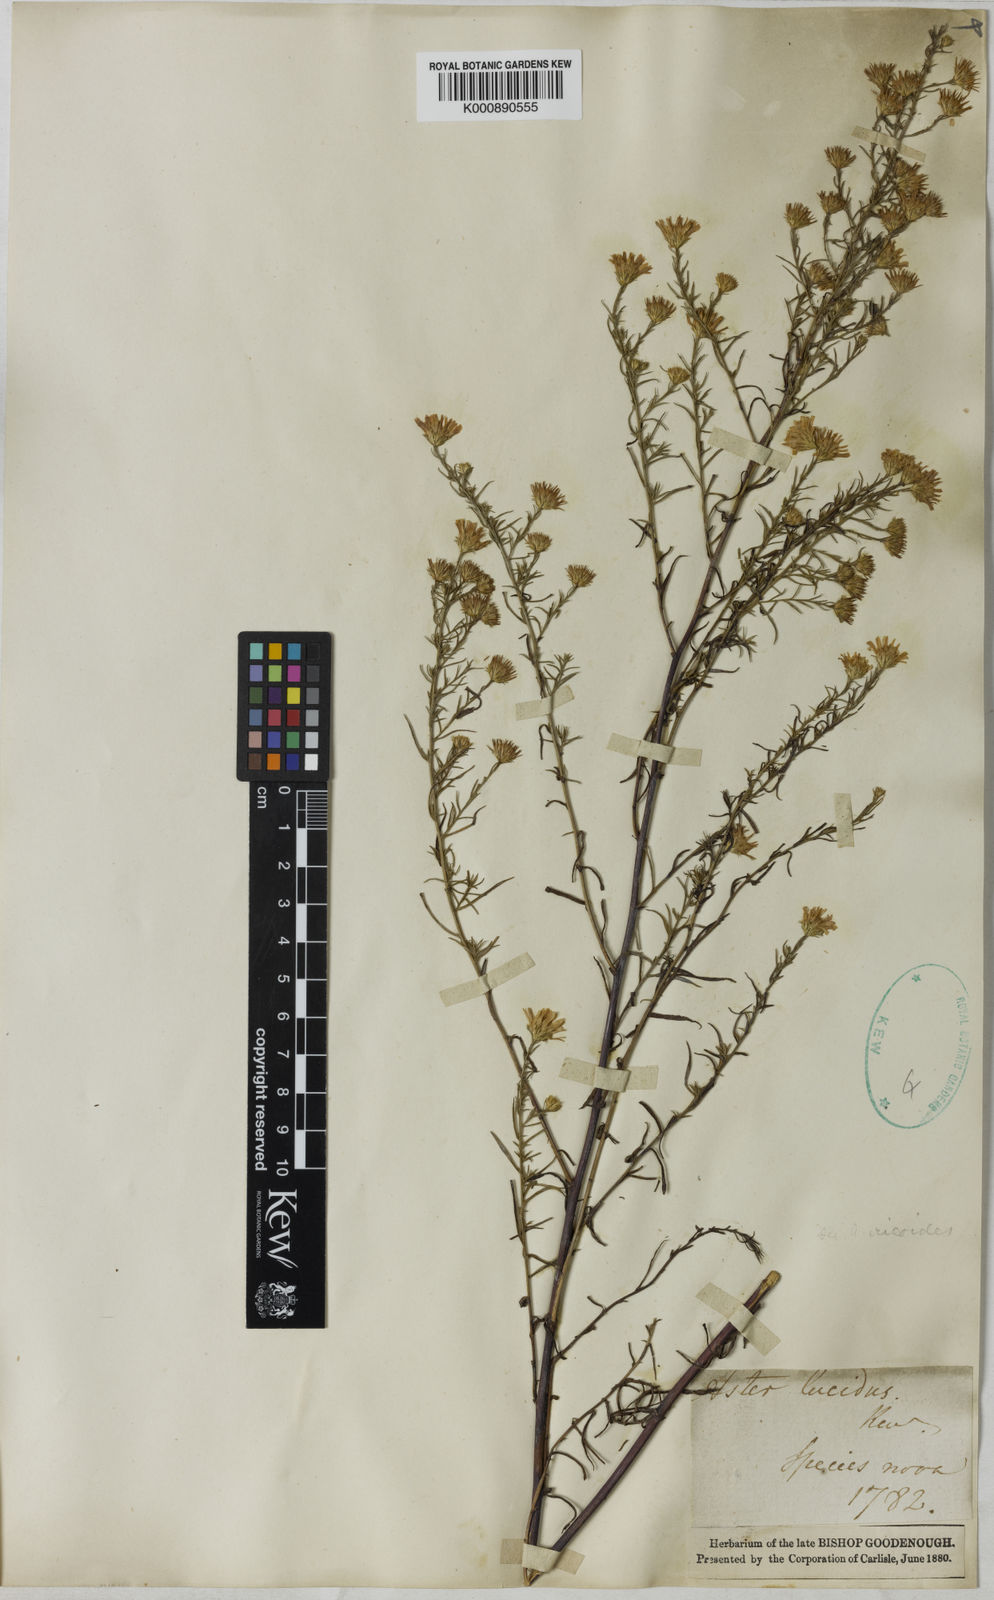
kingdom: Plantae
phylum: Tracheophyta
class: Magnoliopsida
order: Asterales
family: Asteraceae
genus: Symphyotrichum
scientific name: Symphyotrichum pilosum
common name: Awl aster
